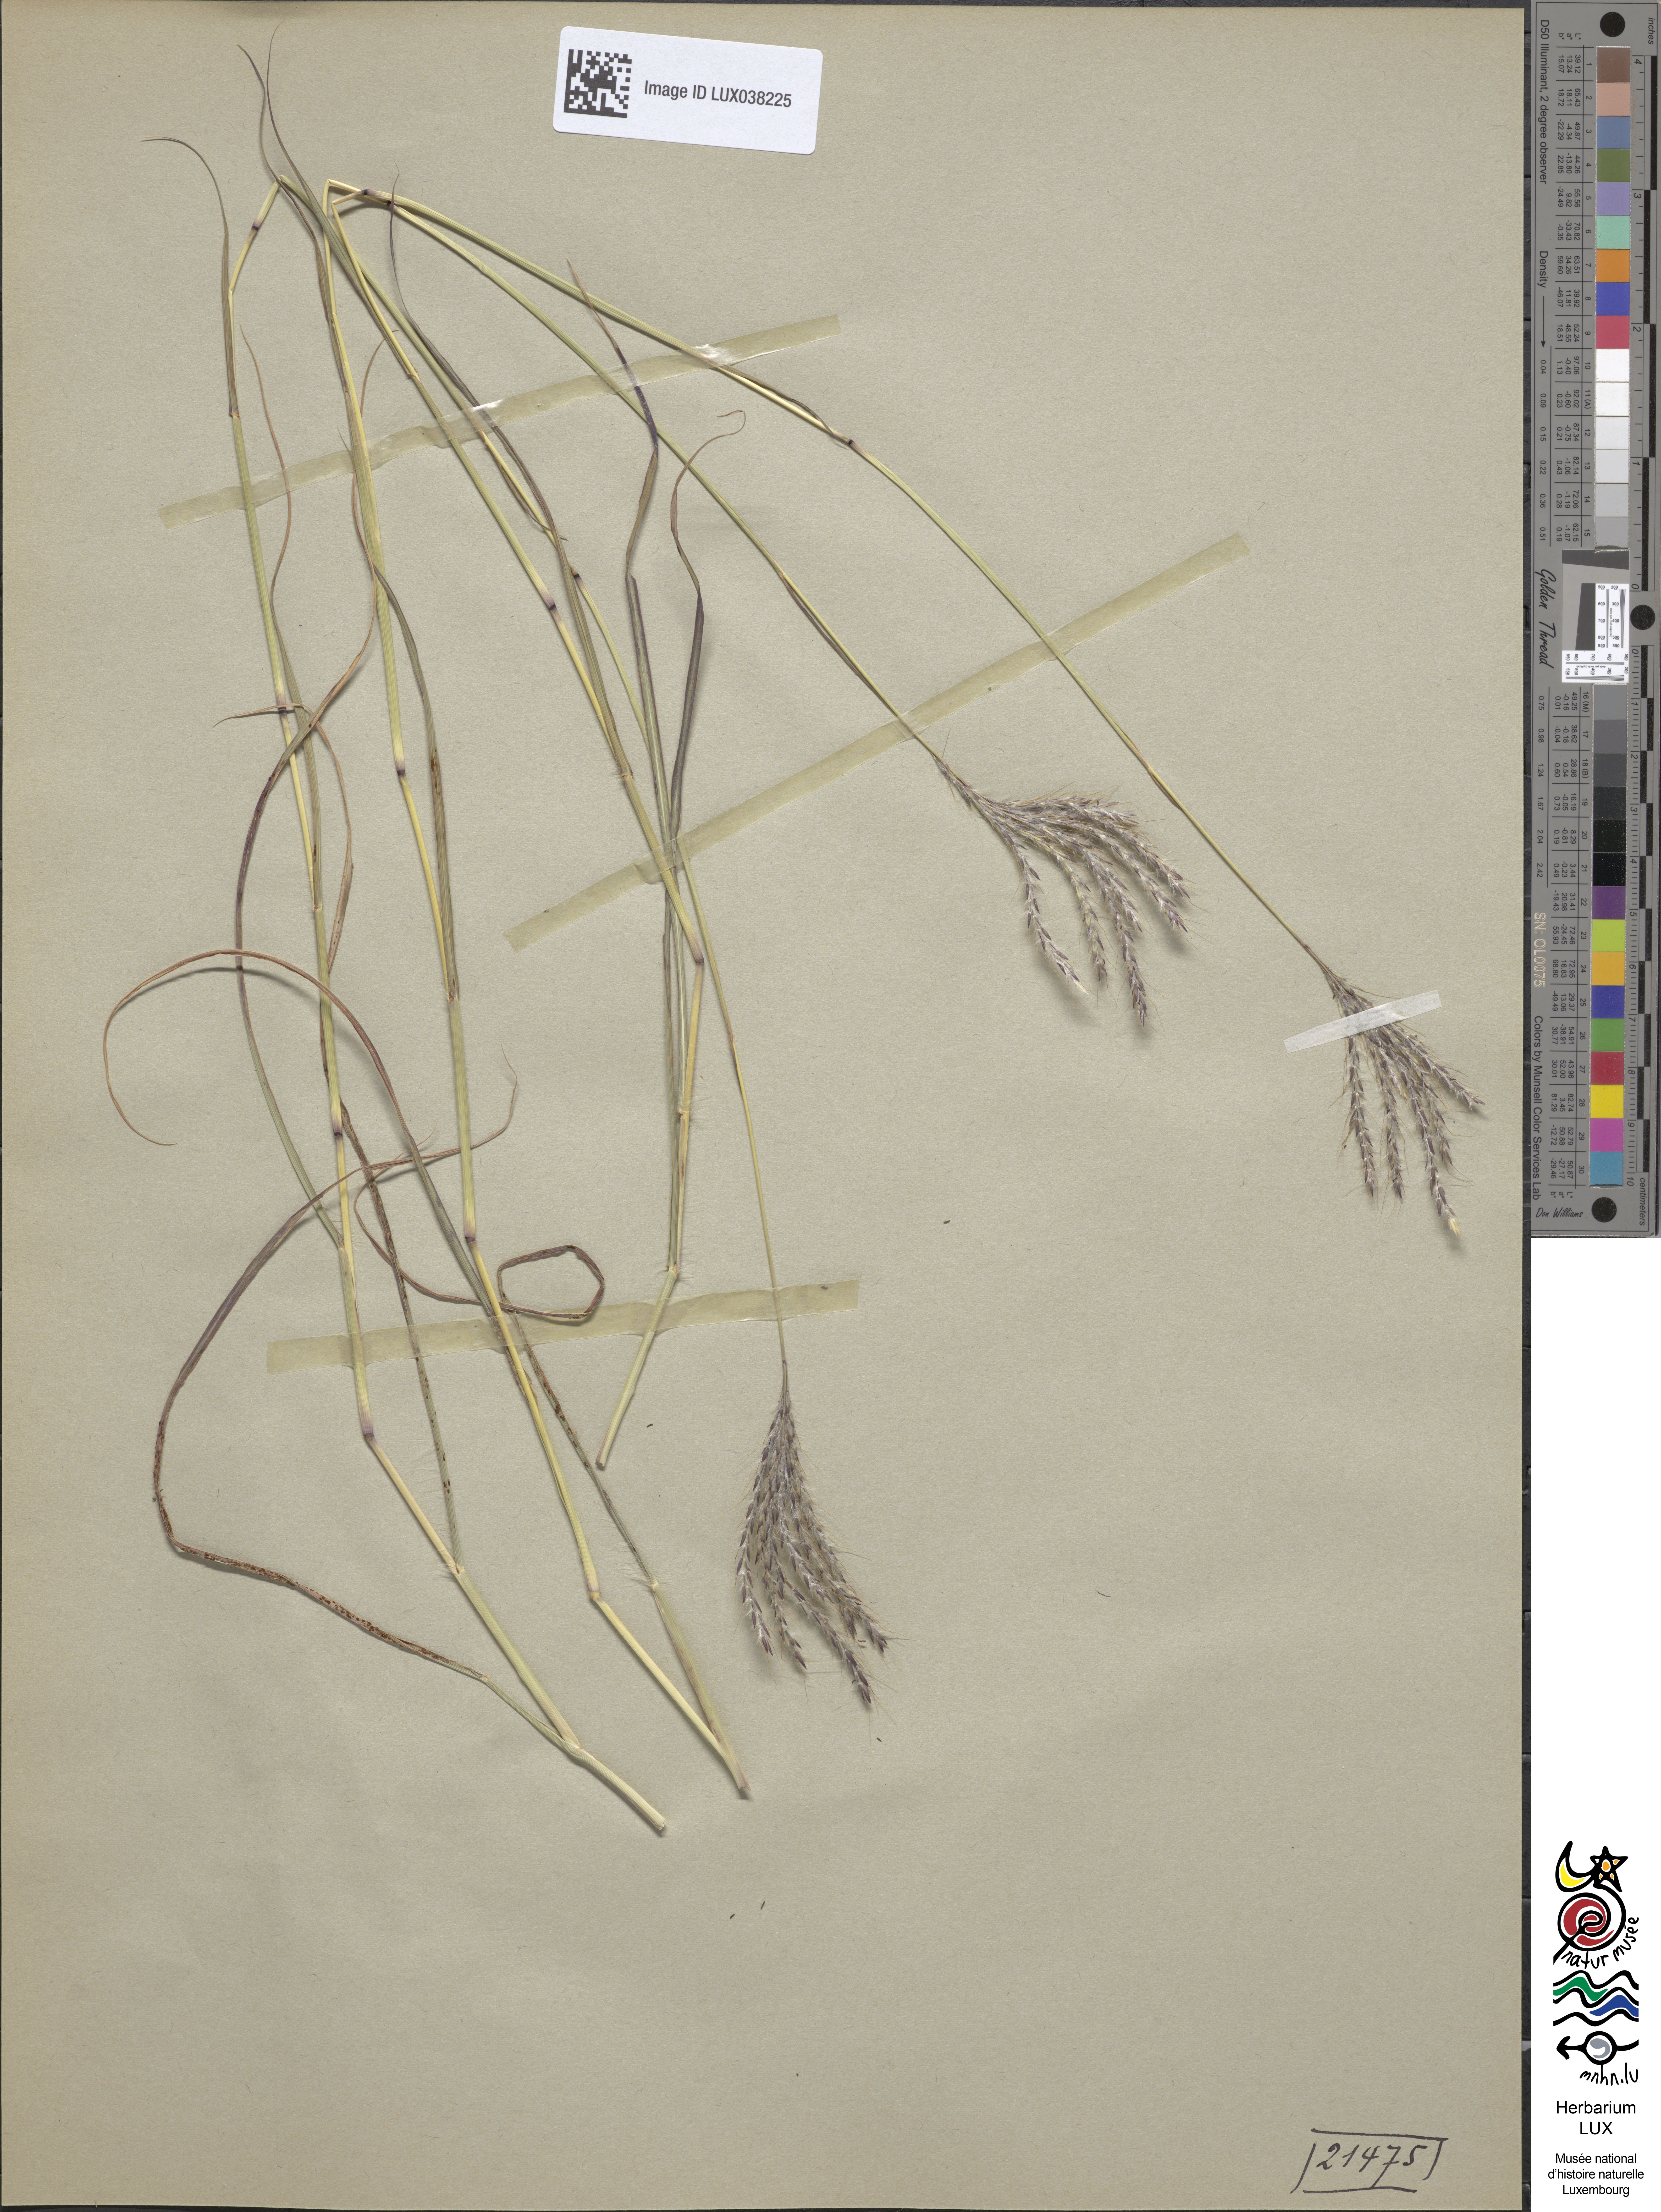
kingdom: Plantae
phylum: Tracheophyta
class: Liliopsida
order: Poales
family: Poaceae
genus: Bothriochloa
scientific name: Bothriochloa ischaemum
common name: Yellow bluestem
